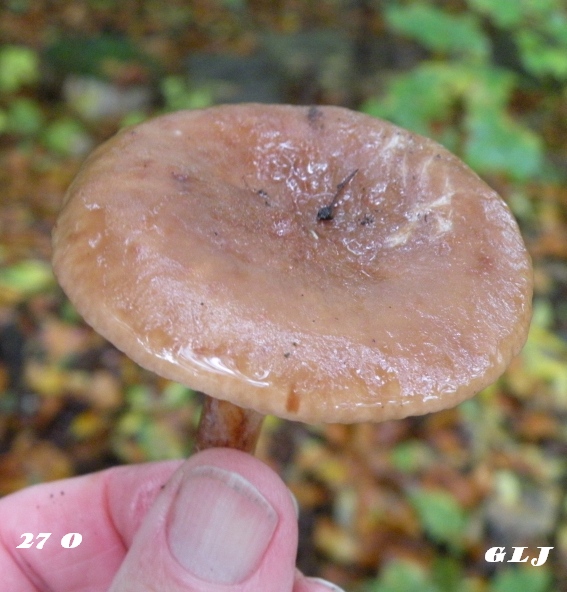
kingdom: Fungi
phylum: Basidiomycota
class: Agaricomycetes
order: Russulales
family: Russulaceae
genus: Lactarius
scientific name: Lactarius
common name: mælkehat
